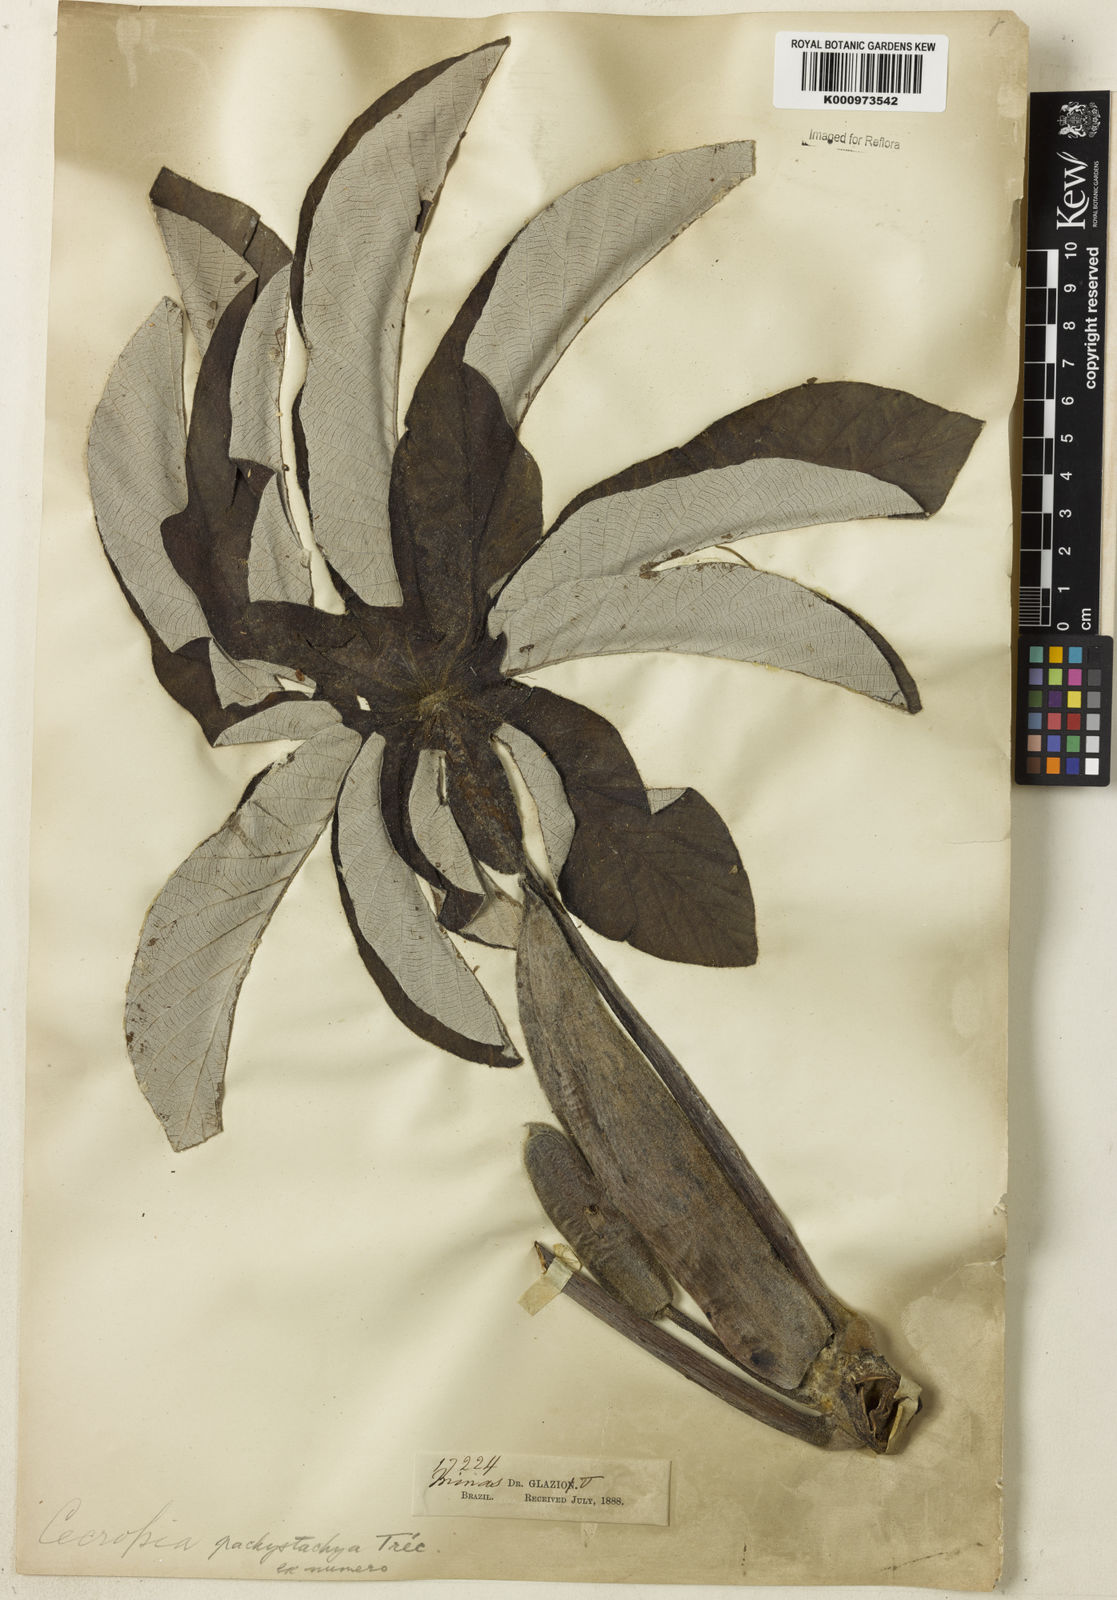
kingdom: Plantae
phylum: Tracheophyta
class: Magnoliopsida
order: Rosales
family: Urticaceae
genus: Cecropia
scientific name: Cecropia
